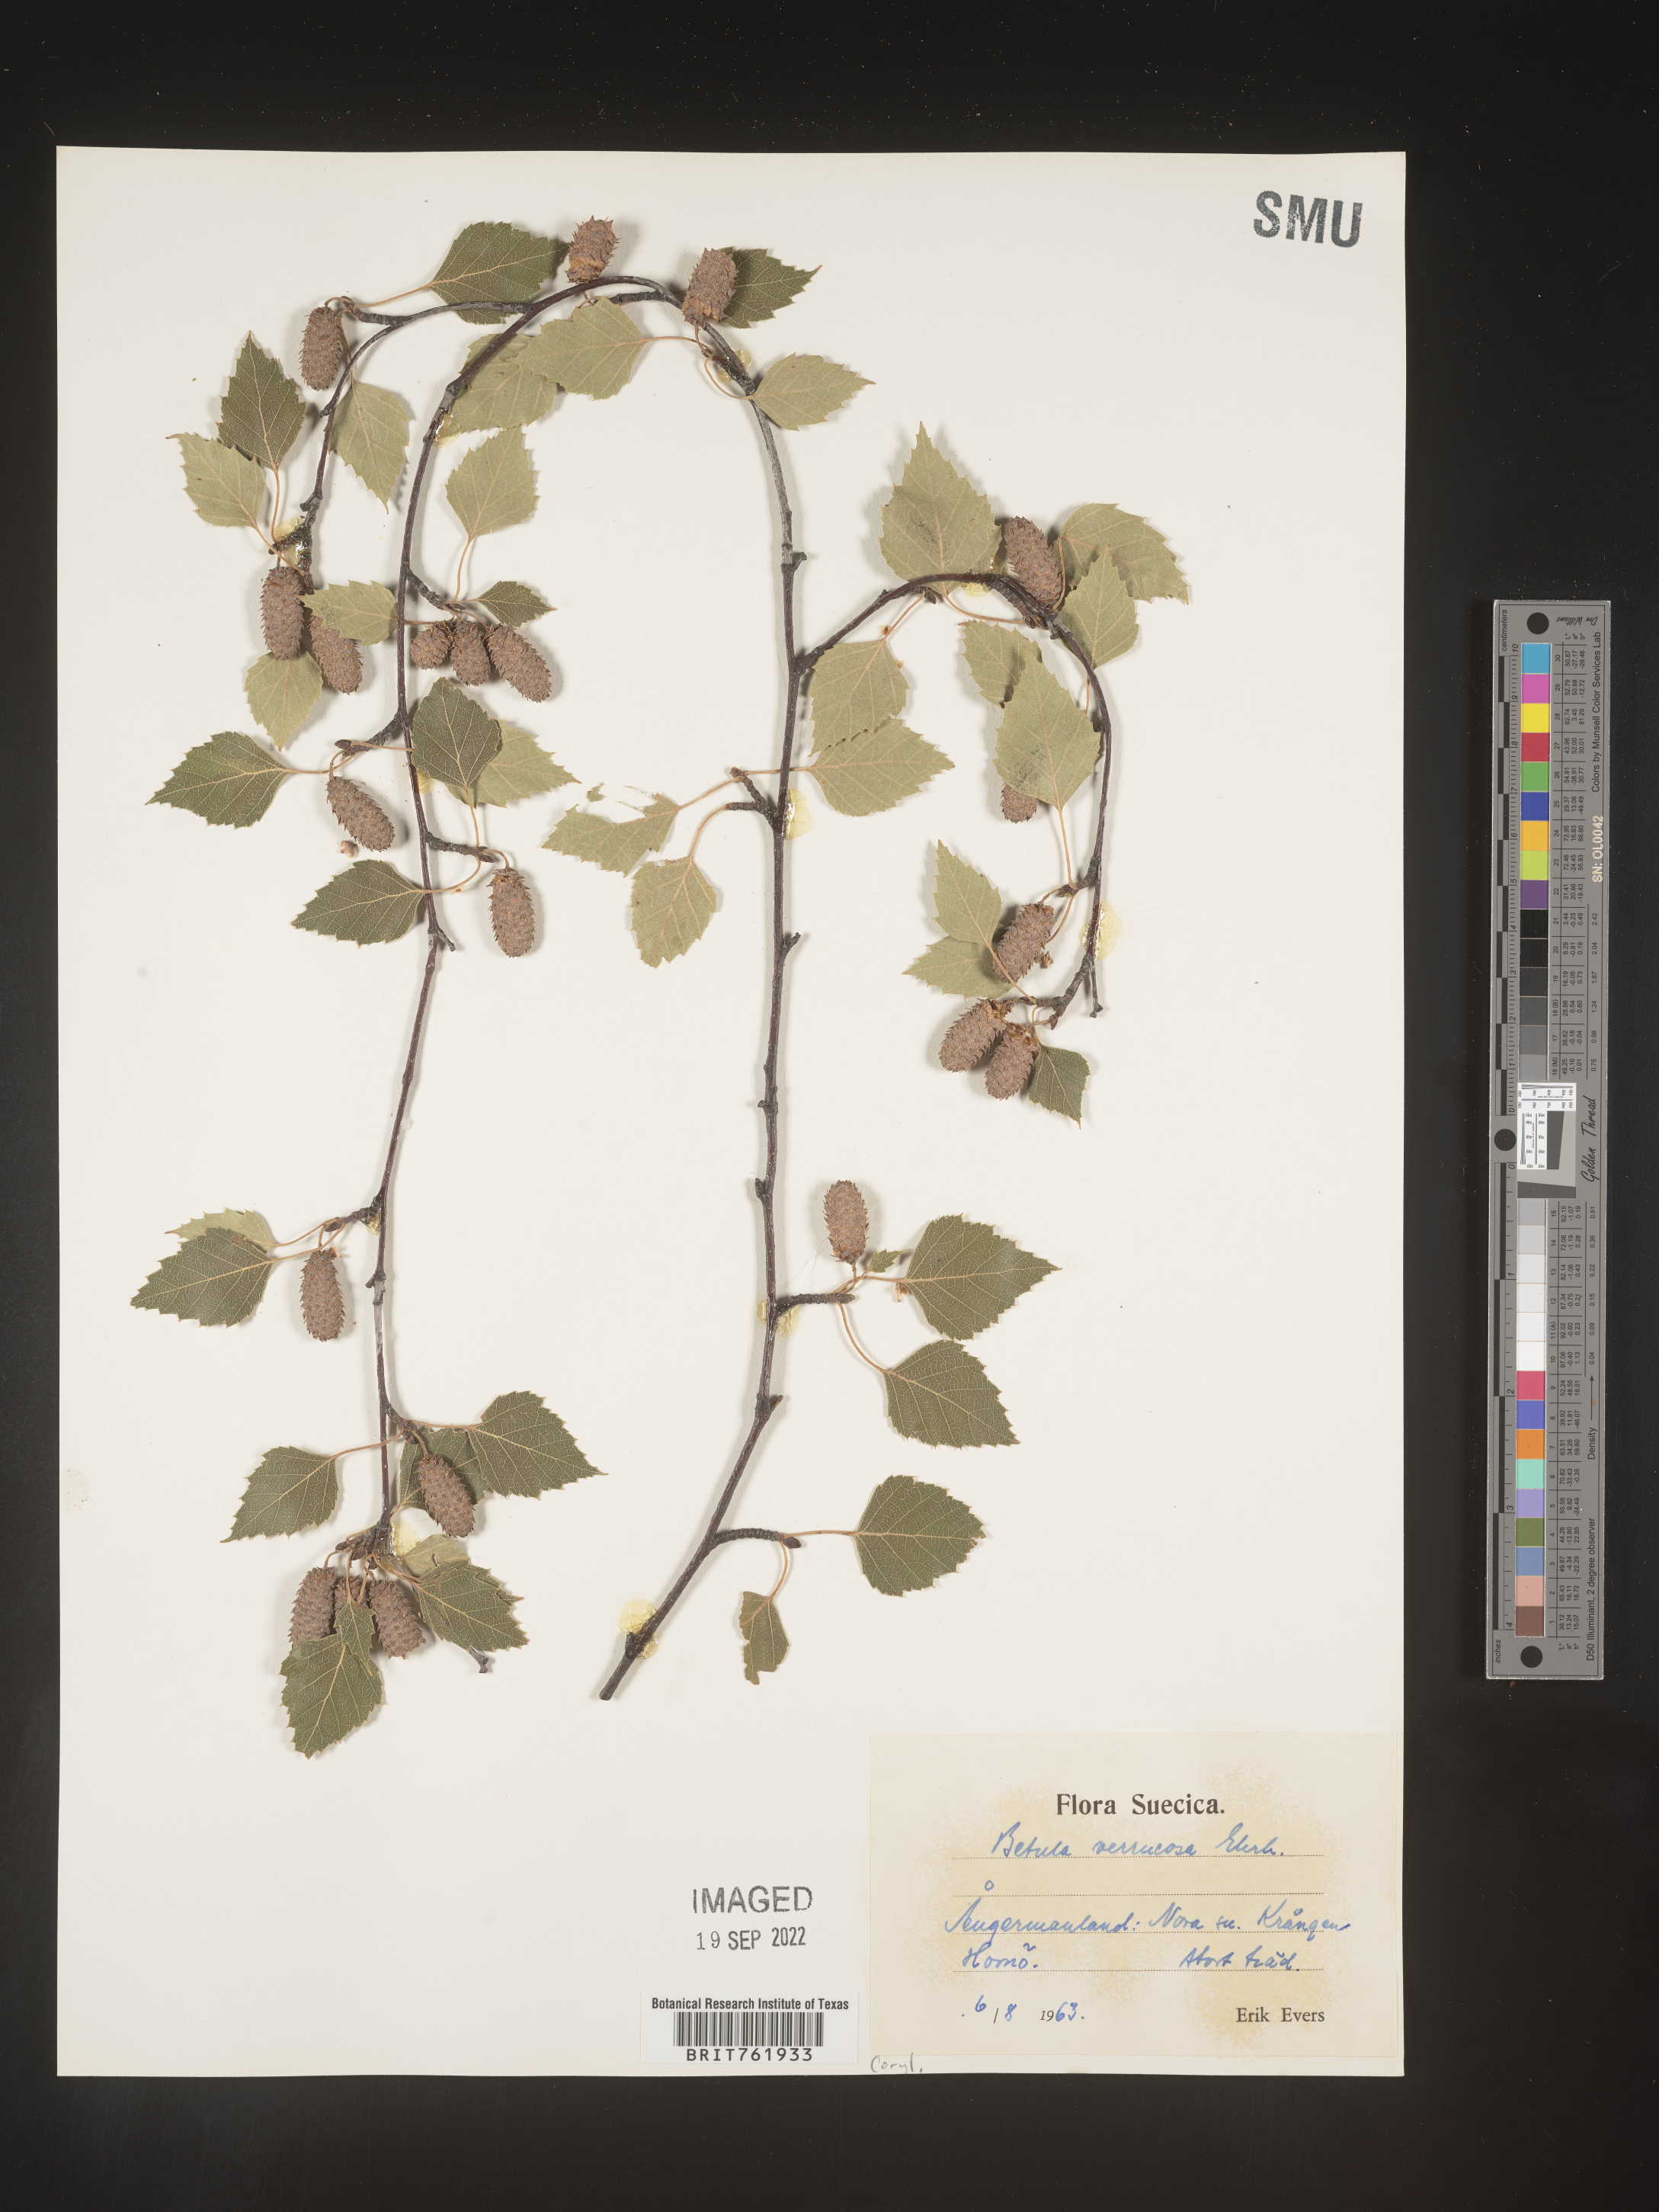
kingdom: Plantae
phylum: Tracheophyta
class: Magnoliopsida
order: Fagales
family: Betulaceae
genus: Betula
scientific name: Betula
